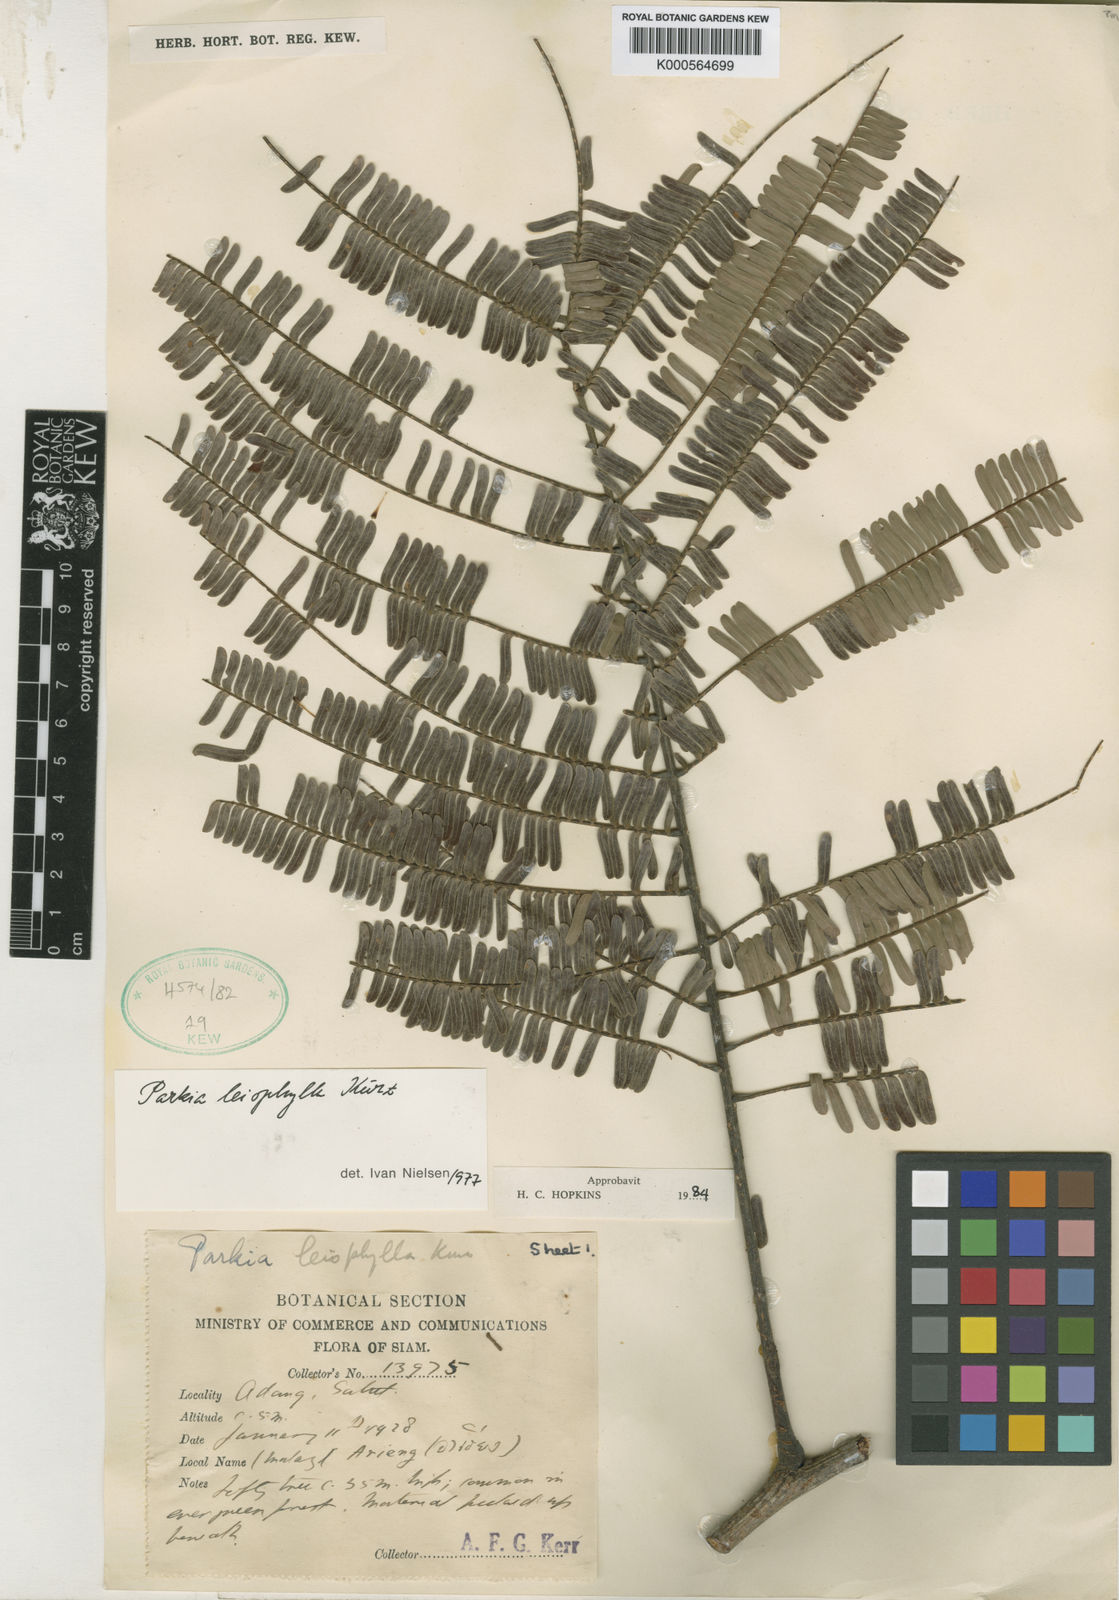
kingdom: Plantae
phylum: Tracheophyta
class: Magnoliopsida
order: Fabales
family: Fabaceae
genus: Parkia
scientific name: Parkia leiophylla
